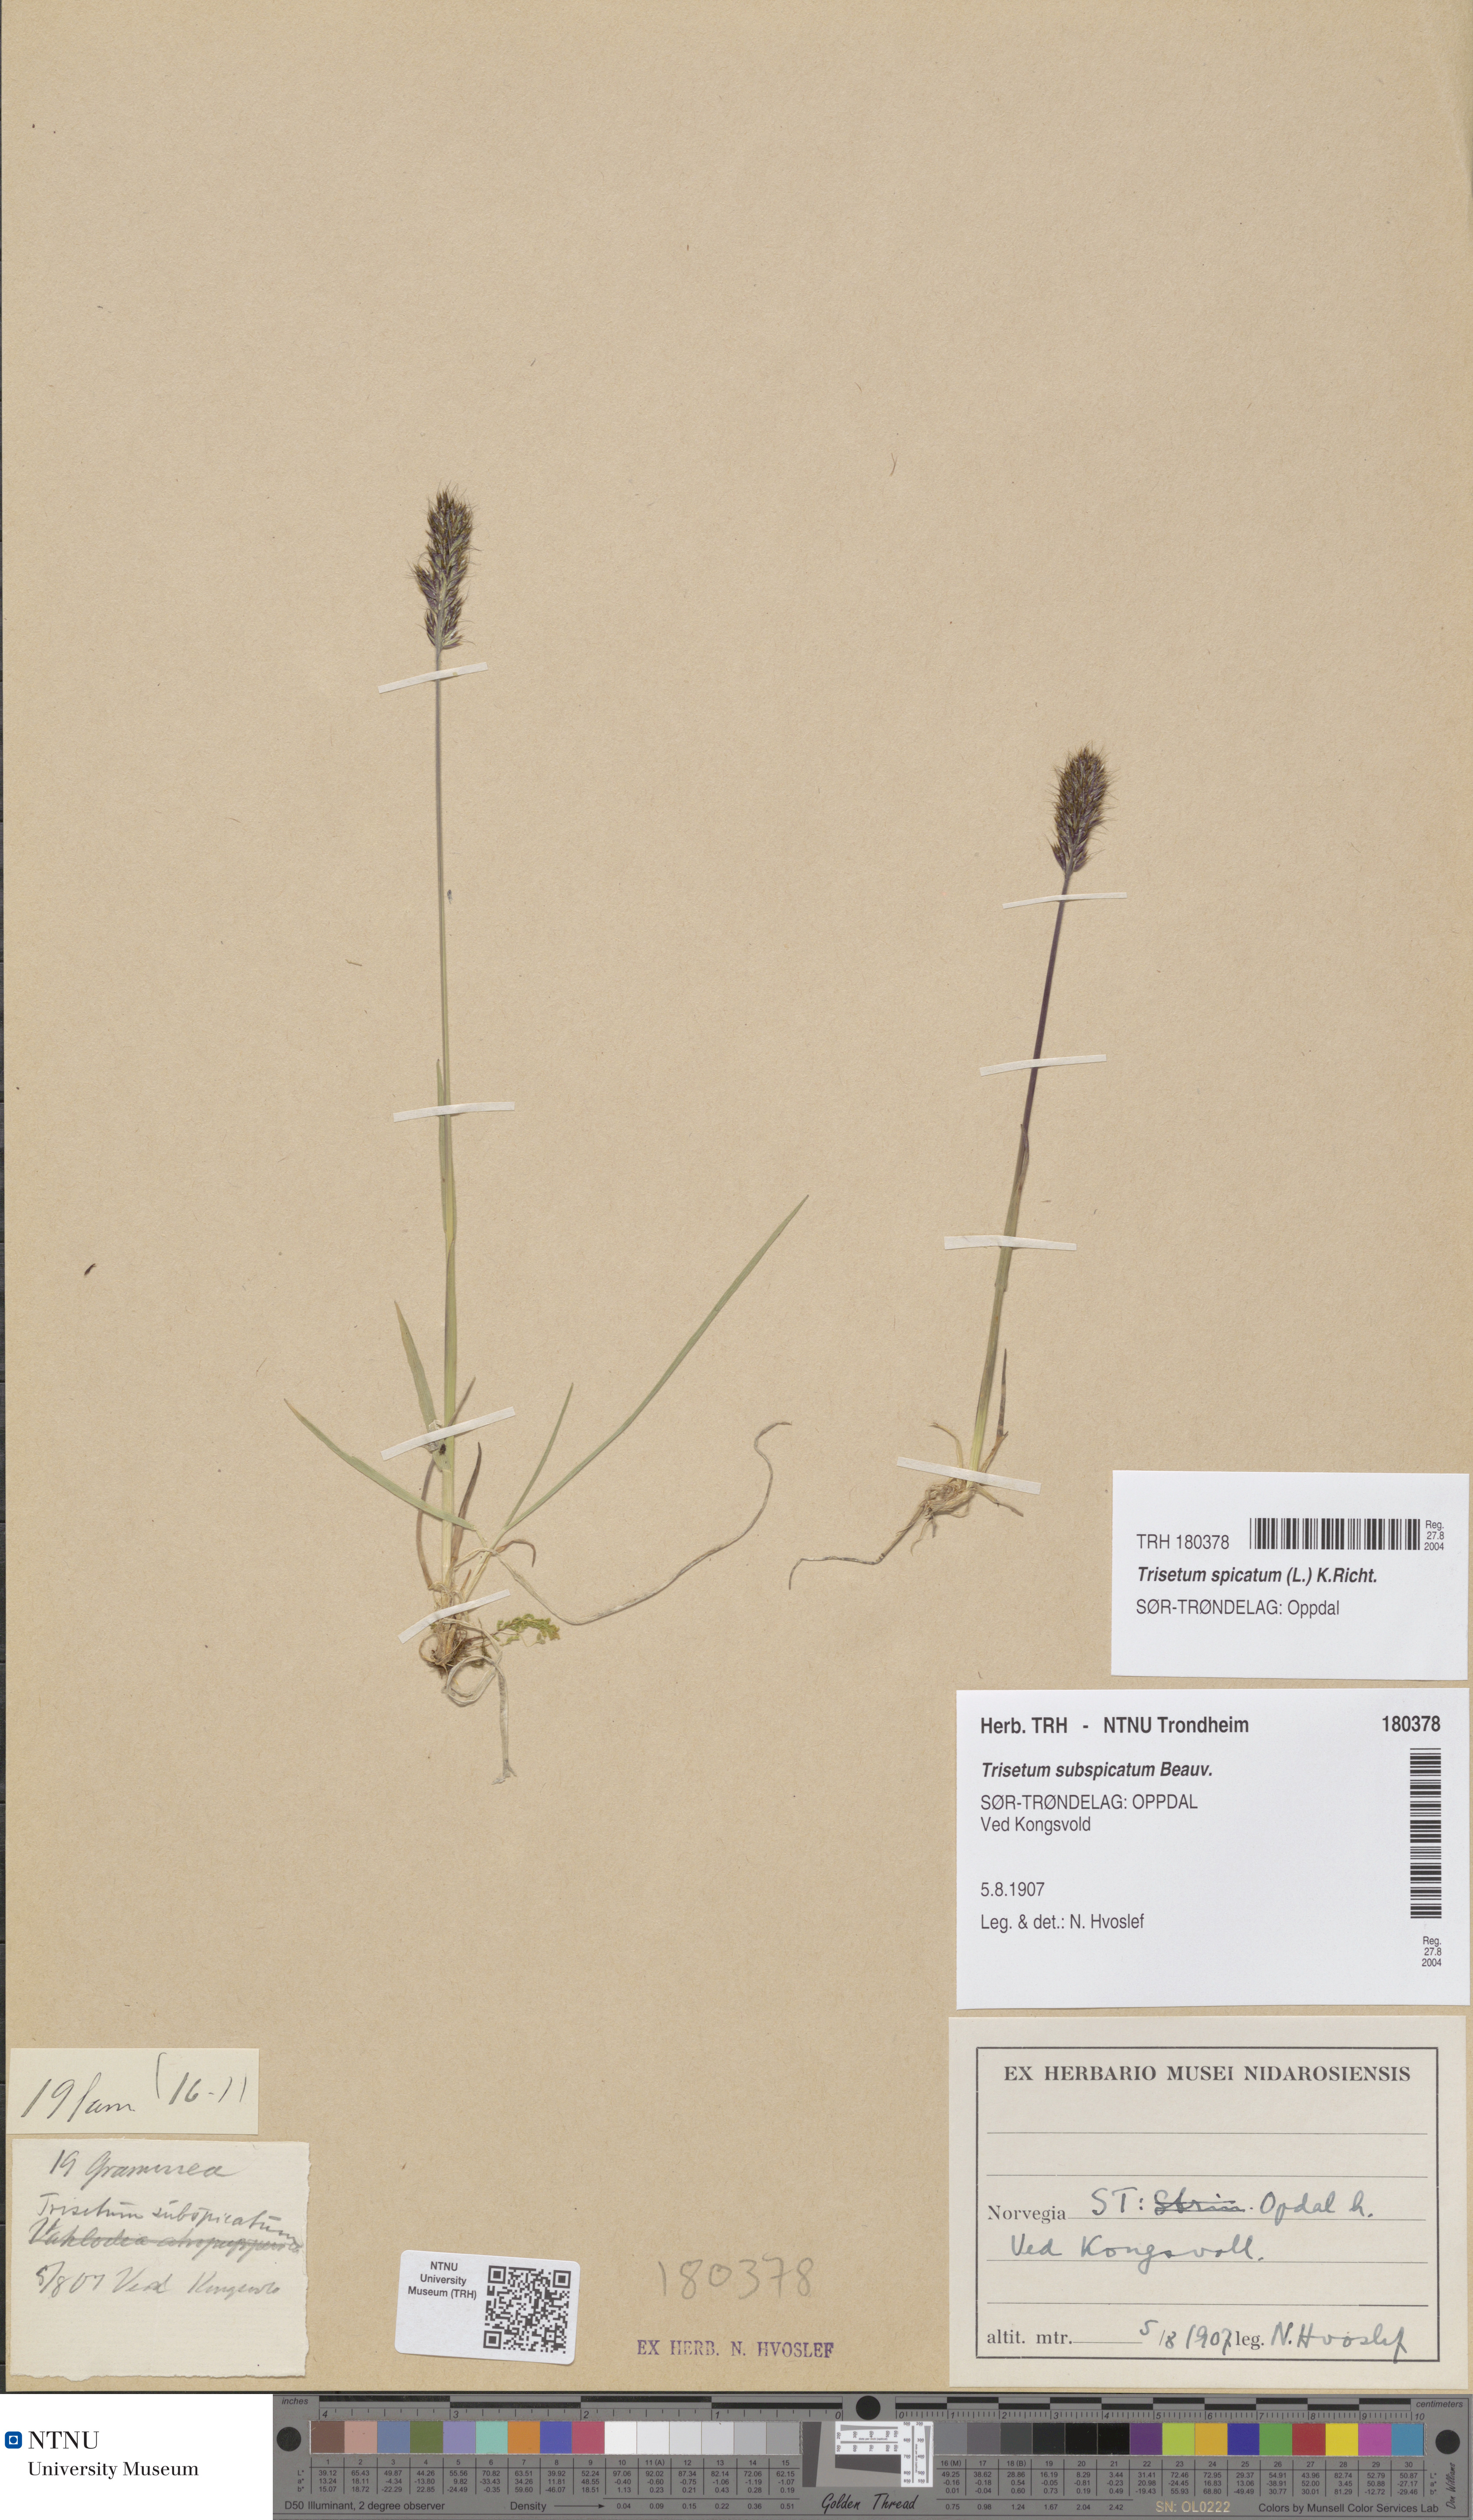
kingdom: Plantae
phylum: Tracheophyta
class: Liliopsida
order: Poales
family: Poaceae
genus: Koeleria
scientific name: Koeleria spicata
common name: Mountain trisetum
